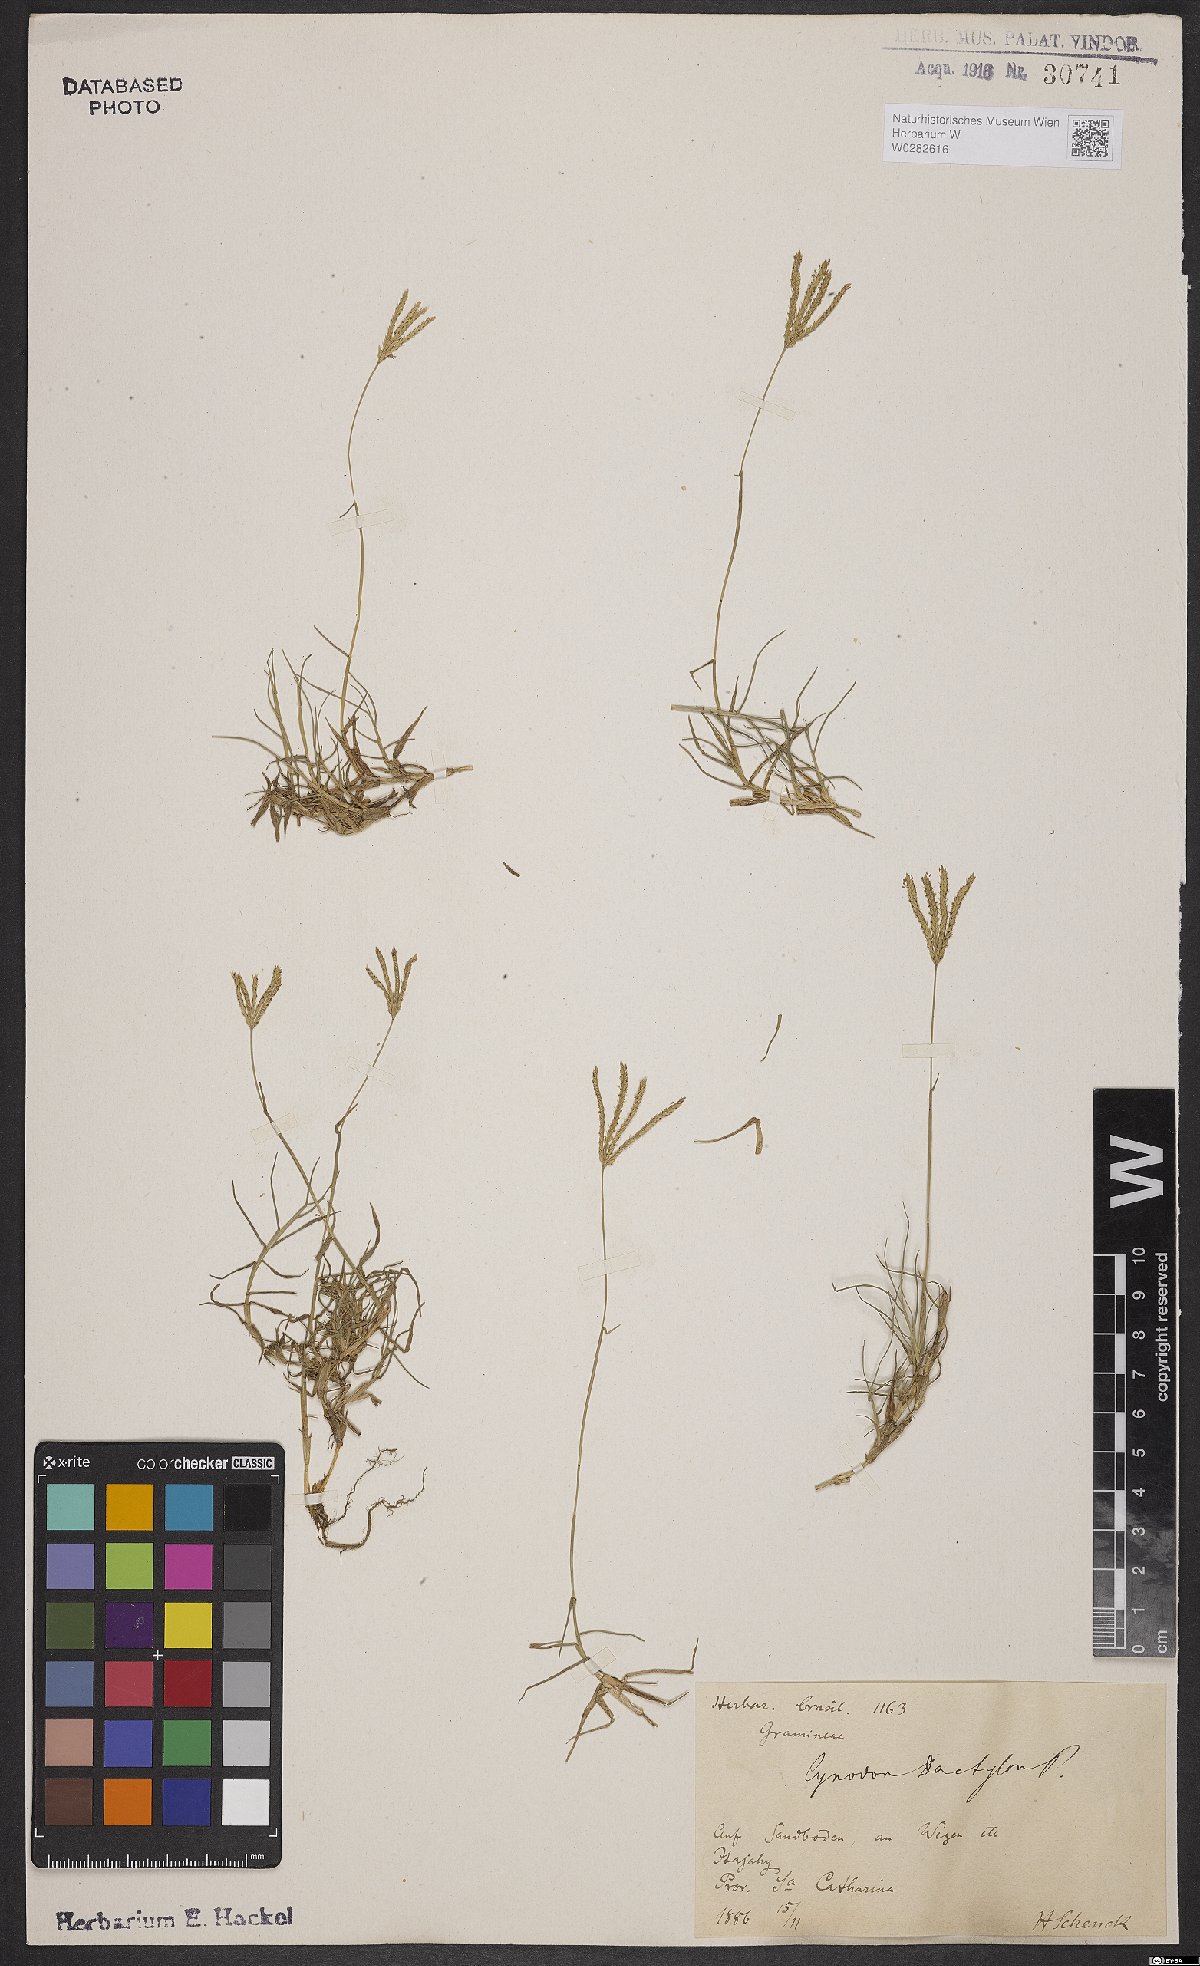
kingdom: Plantae
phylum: Tracheophyta
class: Liliopsida
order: Poales
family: Poaceae
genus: Cynodon
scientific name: Cynodon dactylon
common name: Bermuda grass
